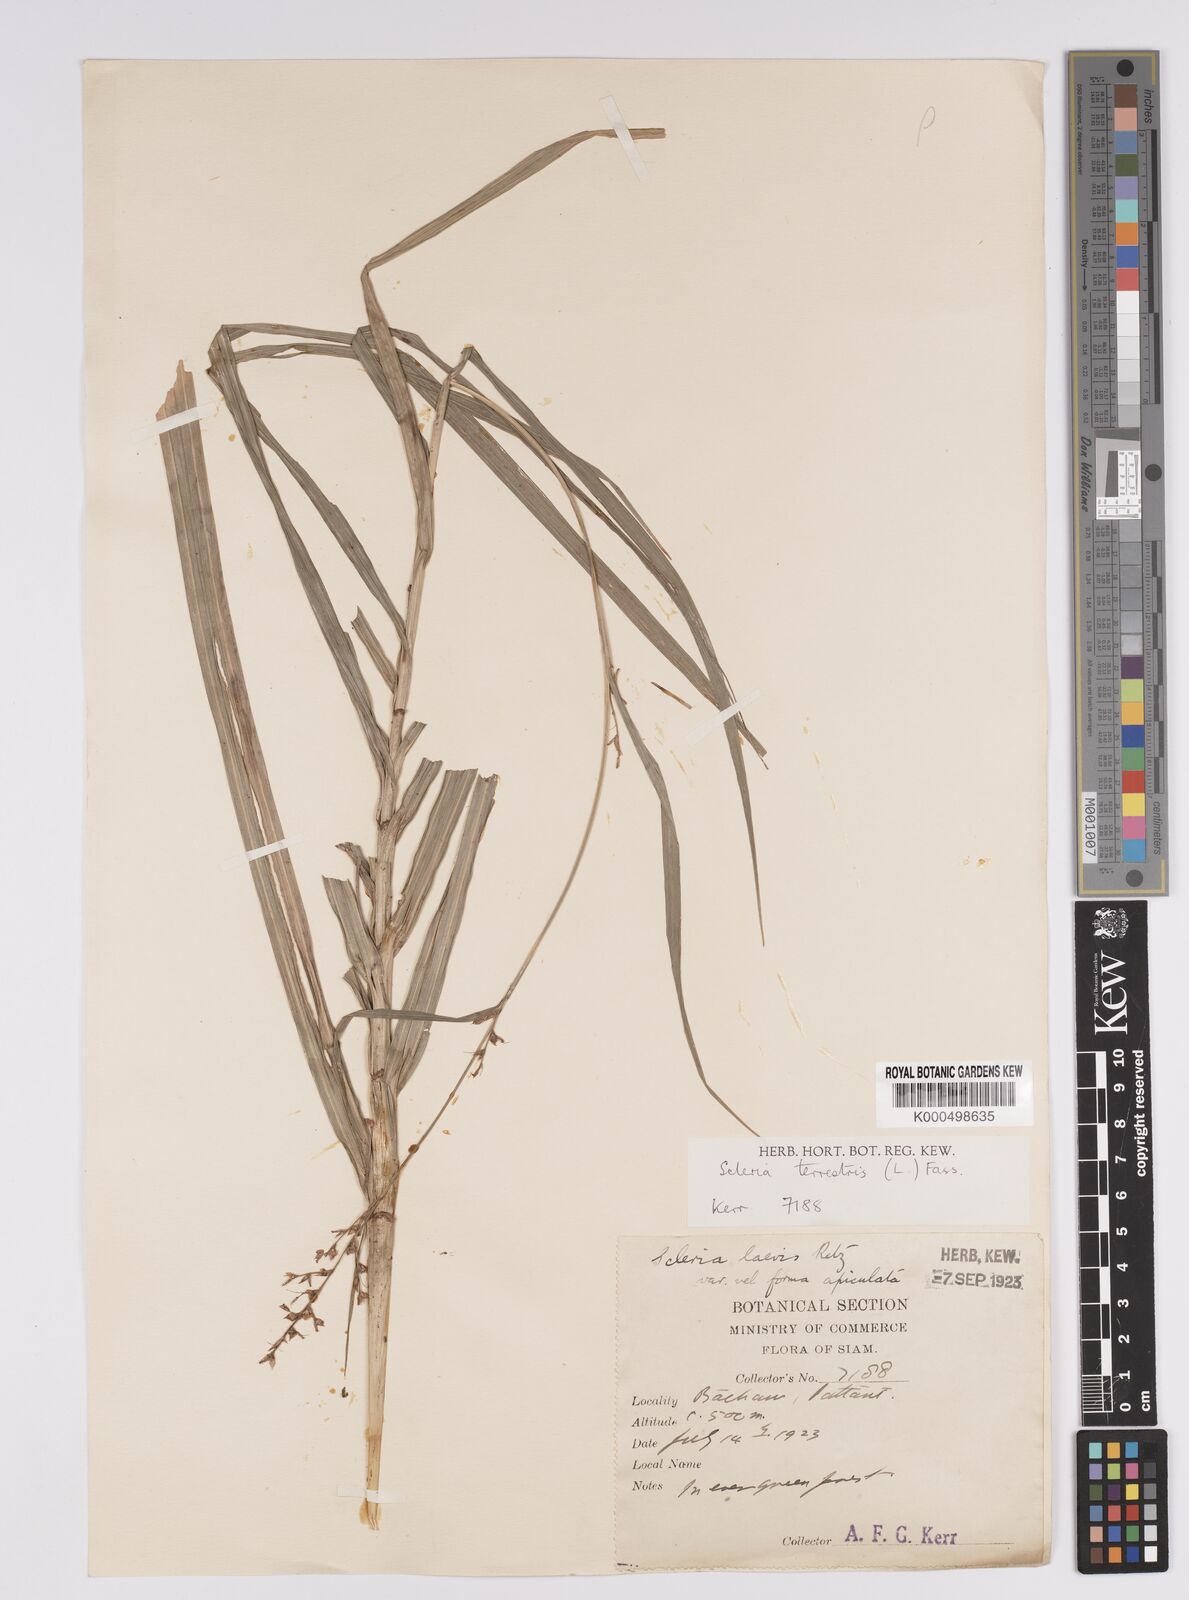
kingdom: Plantae
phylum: Tracheophyta
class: Liliopsida
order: Poales
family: Cyperaceae
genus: Scleria
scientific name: Scleria terrestris
